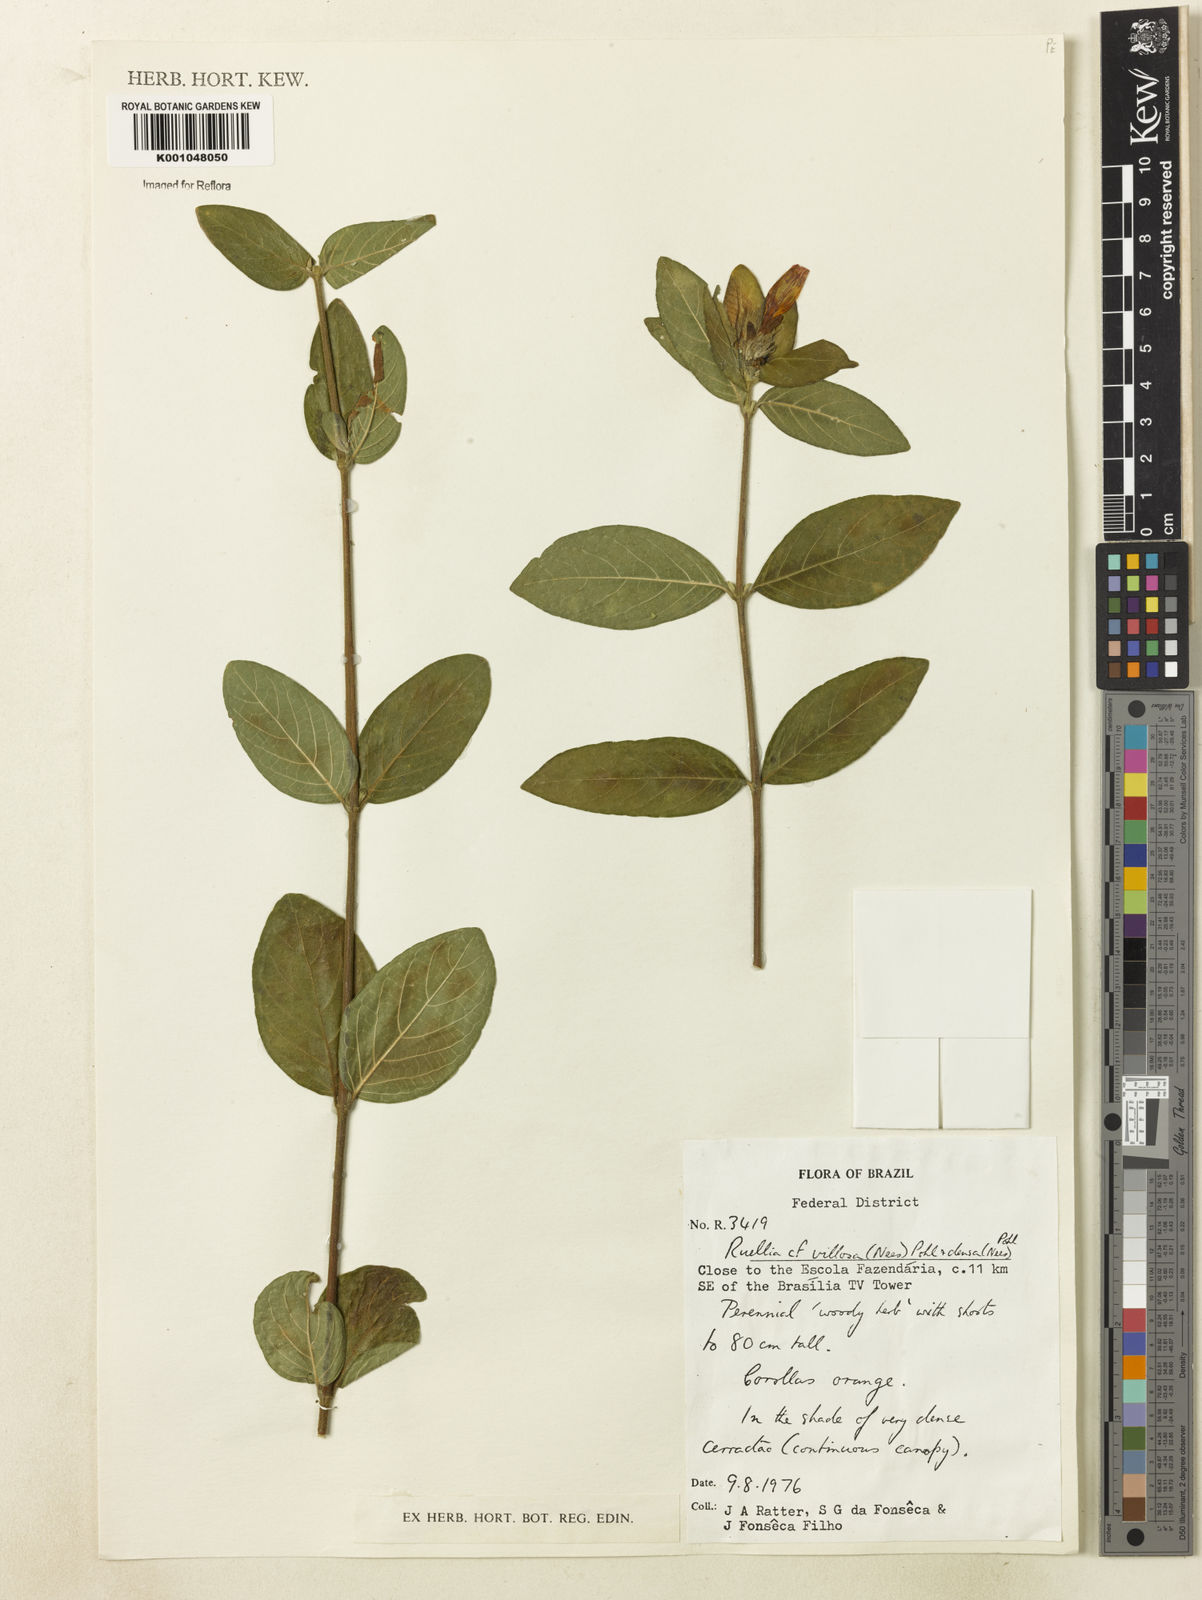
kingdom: Plantae
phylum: Tracheophyta
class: Magnoliopsida
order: Lamiales
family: Acanthaceae
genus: Ruellia
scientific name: Ruellia densa
